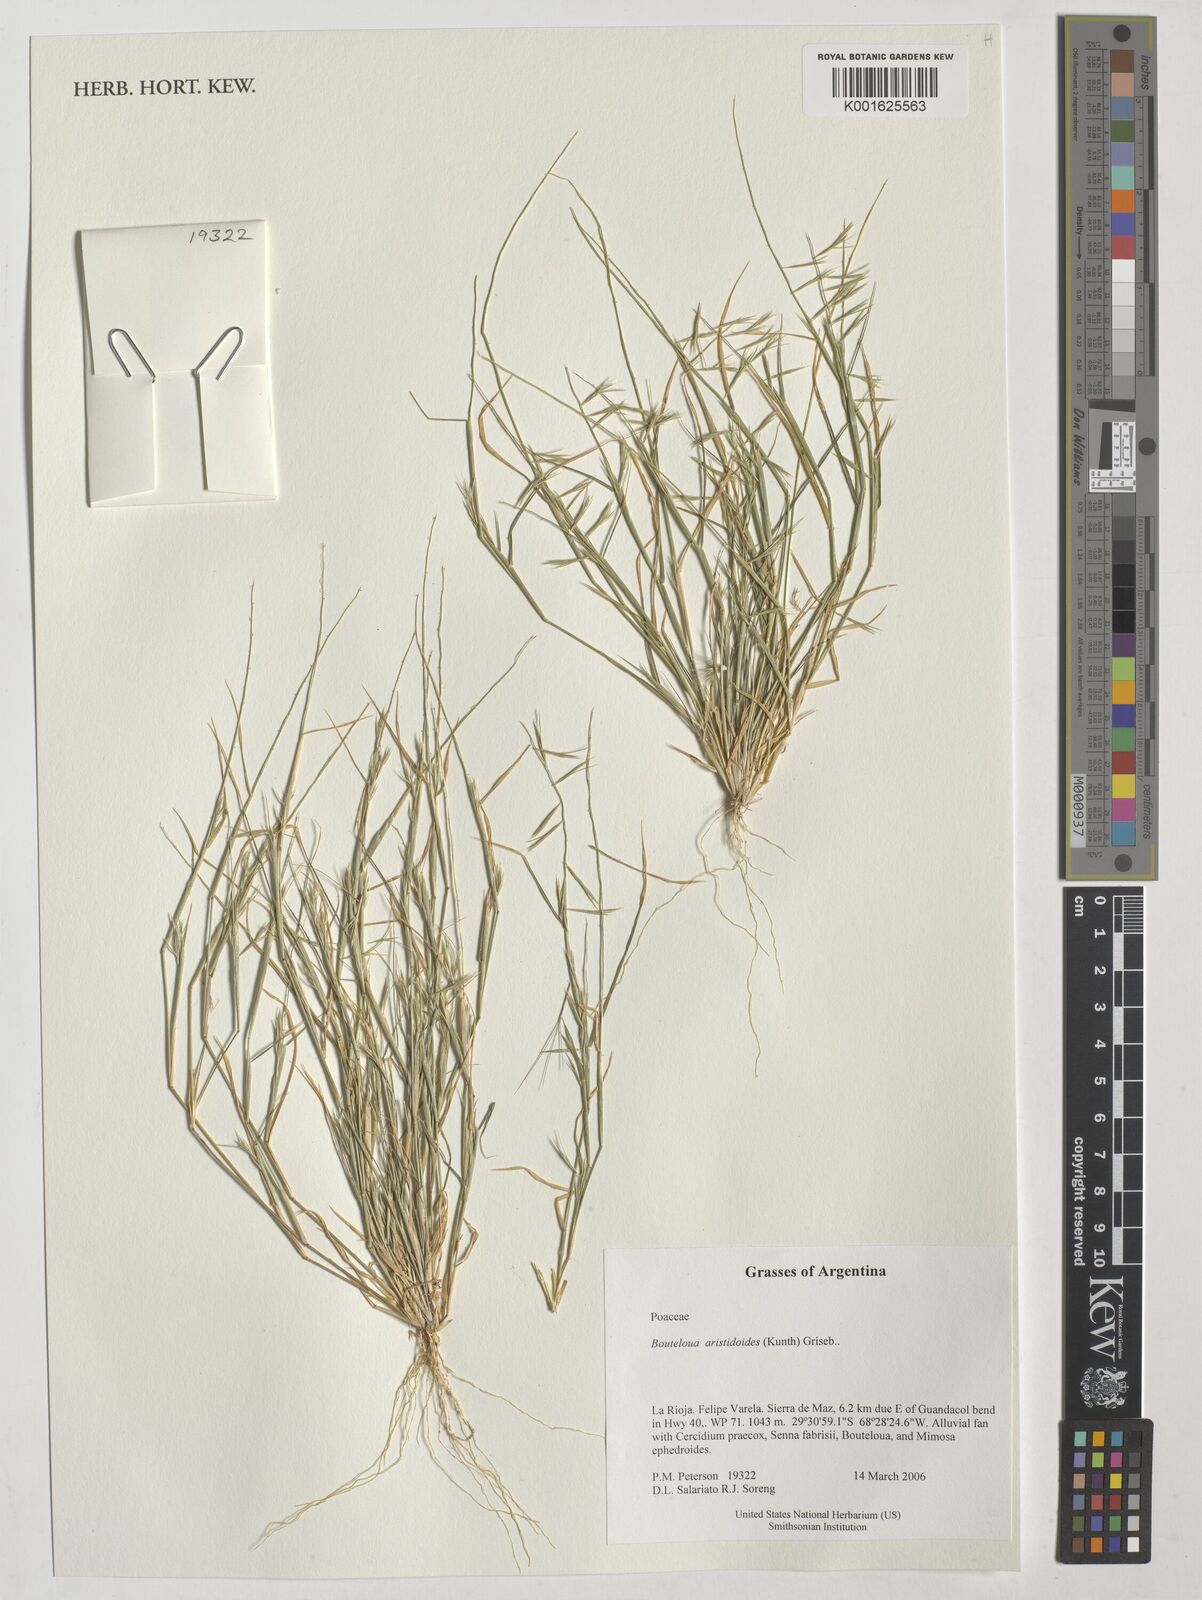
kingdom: Plantae
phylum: Tracheophyta
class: Liliopsida
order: Poales
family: Poaceae
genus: Bouteloua
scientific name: Bouteloua aristidoides
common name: Needle grama
